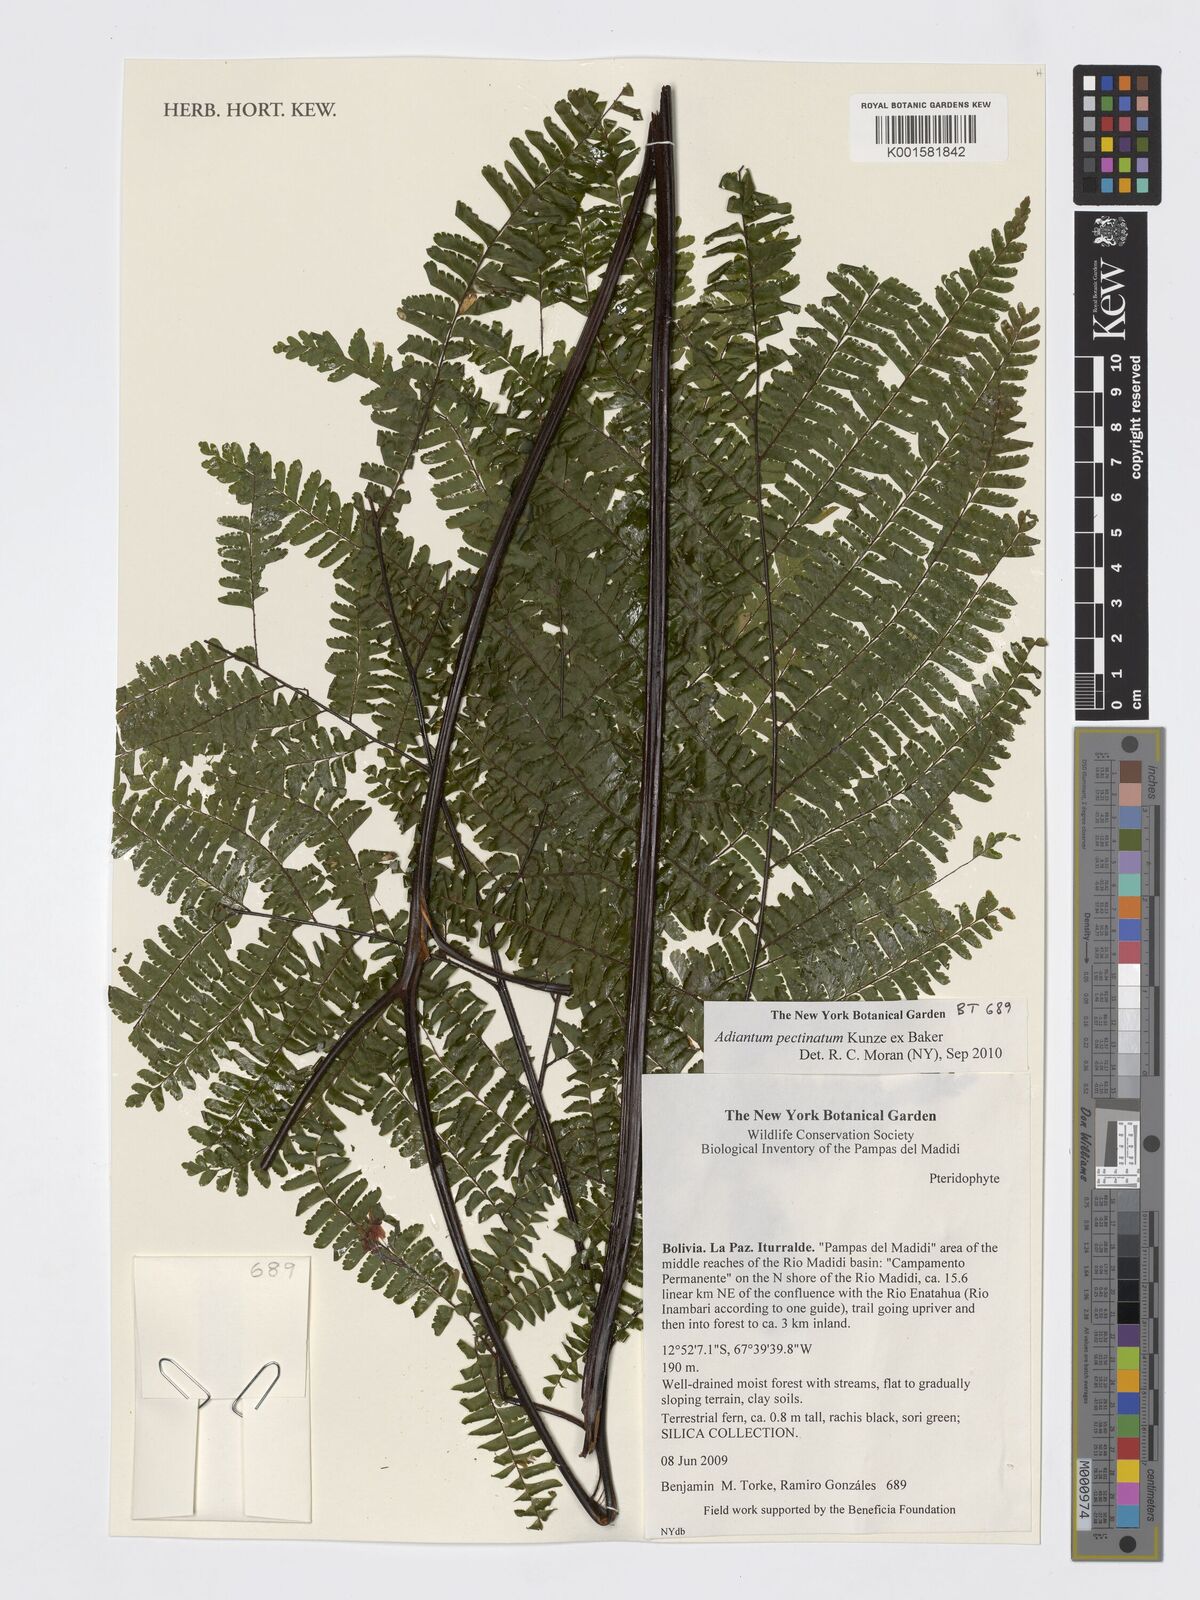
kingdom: Plantae
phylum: Tracheophyta
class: Polypodiopsida
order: Polypodiales
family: Pteridaceae
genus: Adiantum
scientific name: Adiantum pectinatum
